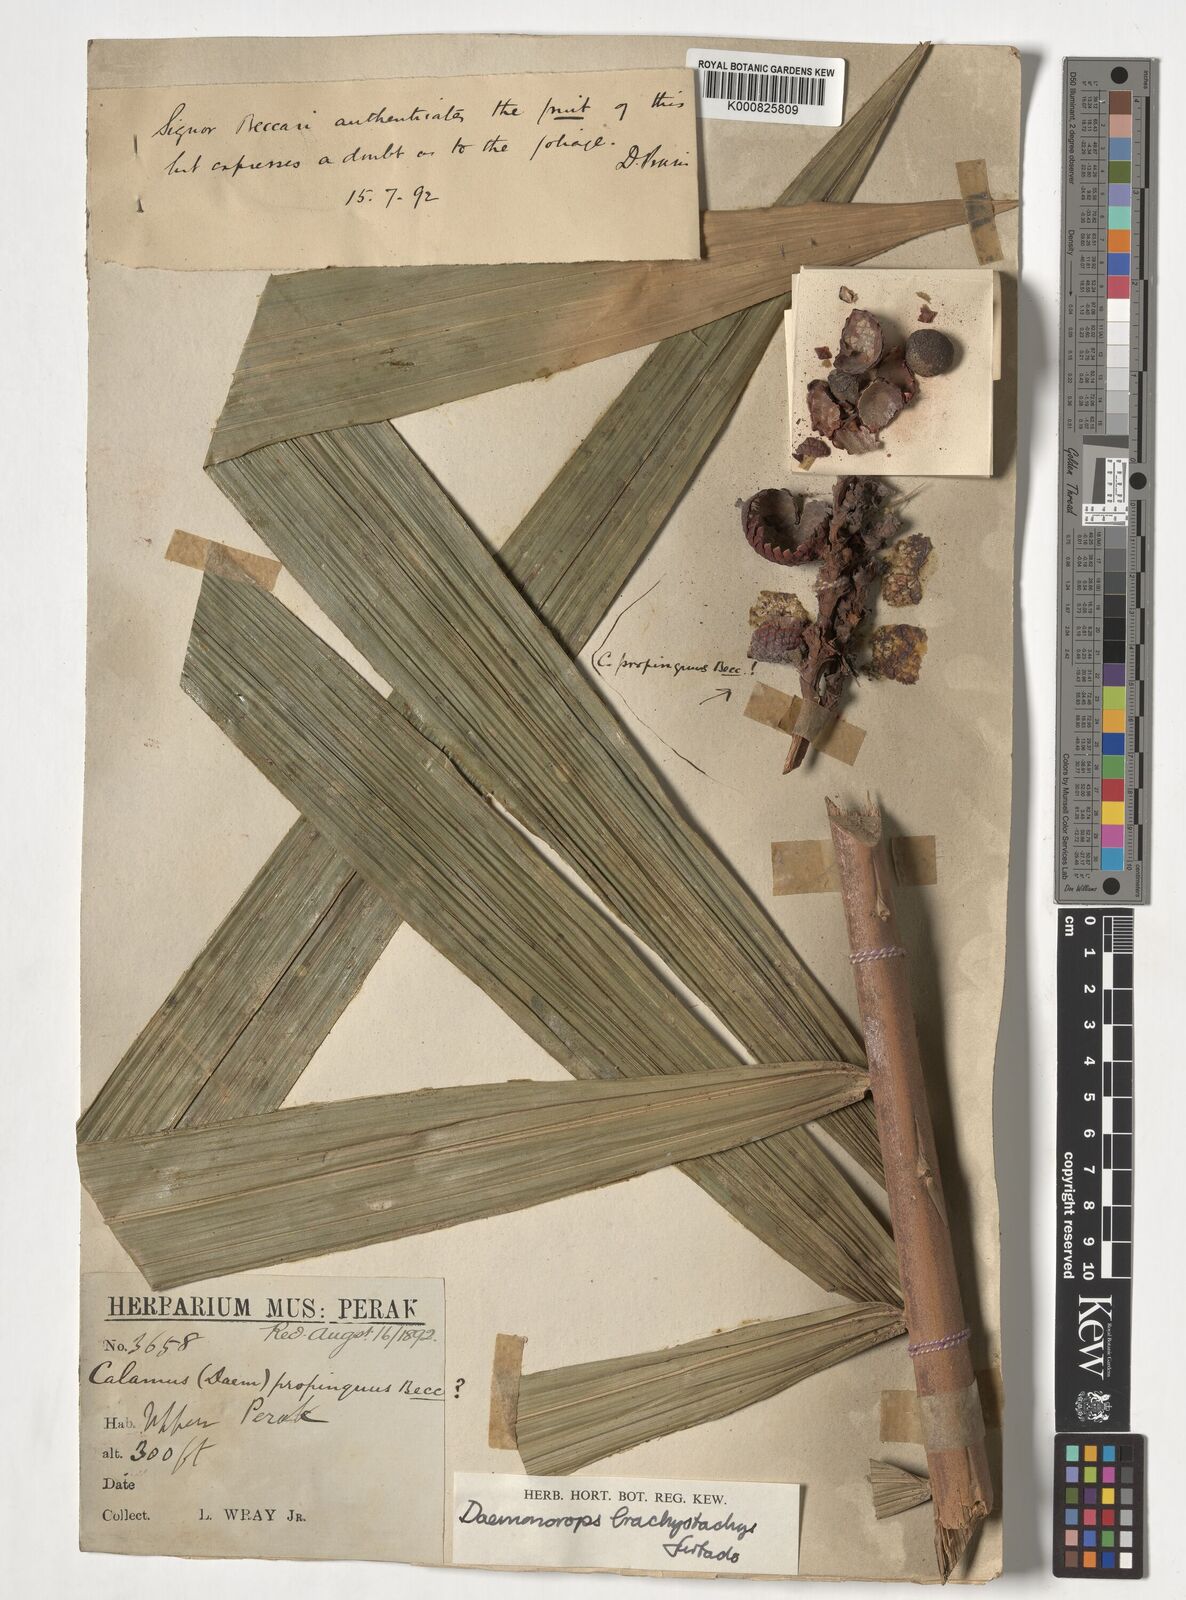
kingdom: Plantae
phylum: Tracheophyta
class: Liliopsida
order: Arecales
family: Arecaceae
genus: Calamus
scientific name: Calamus propinquus
